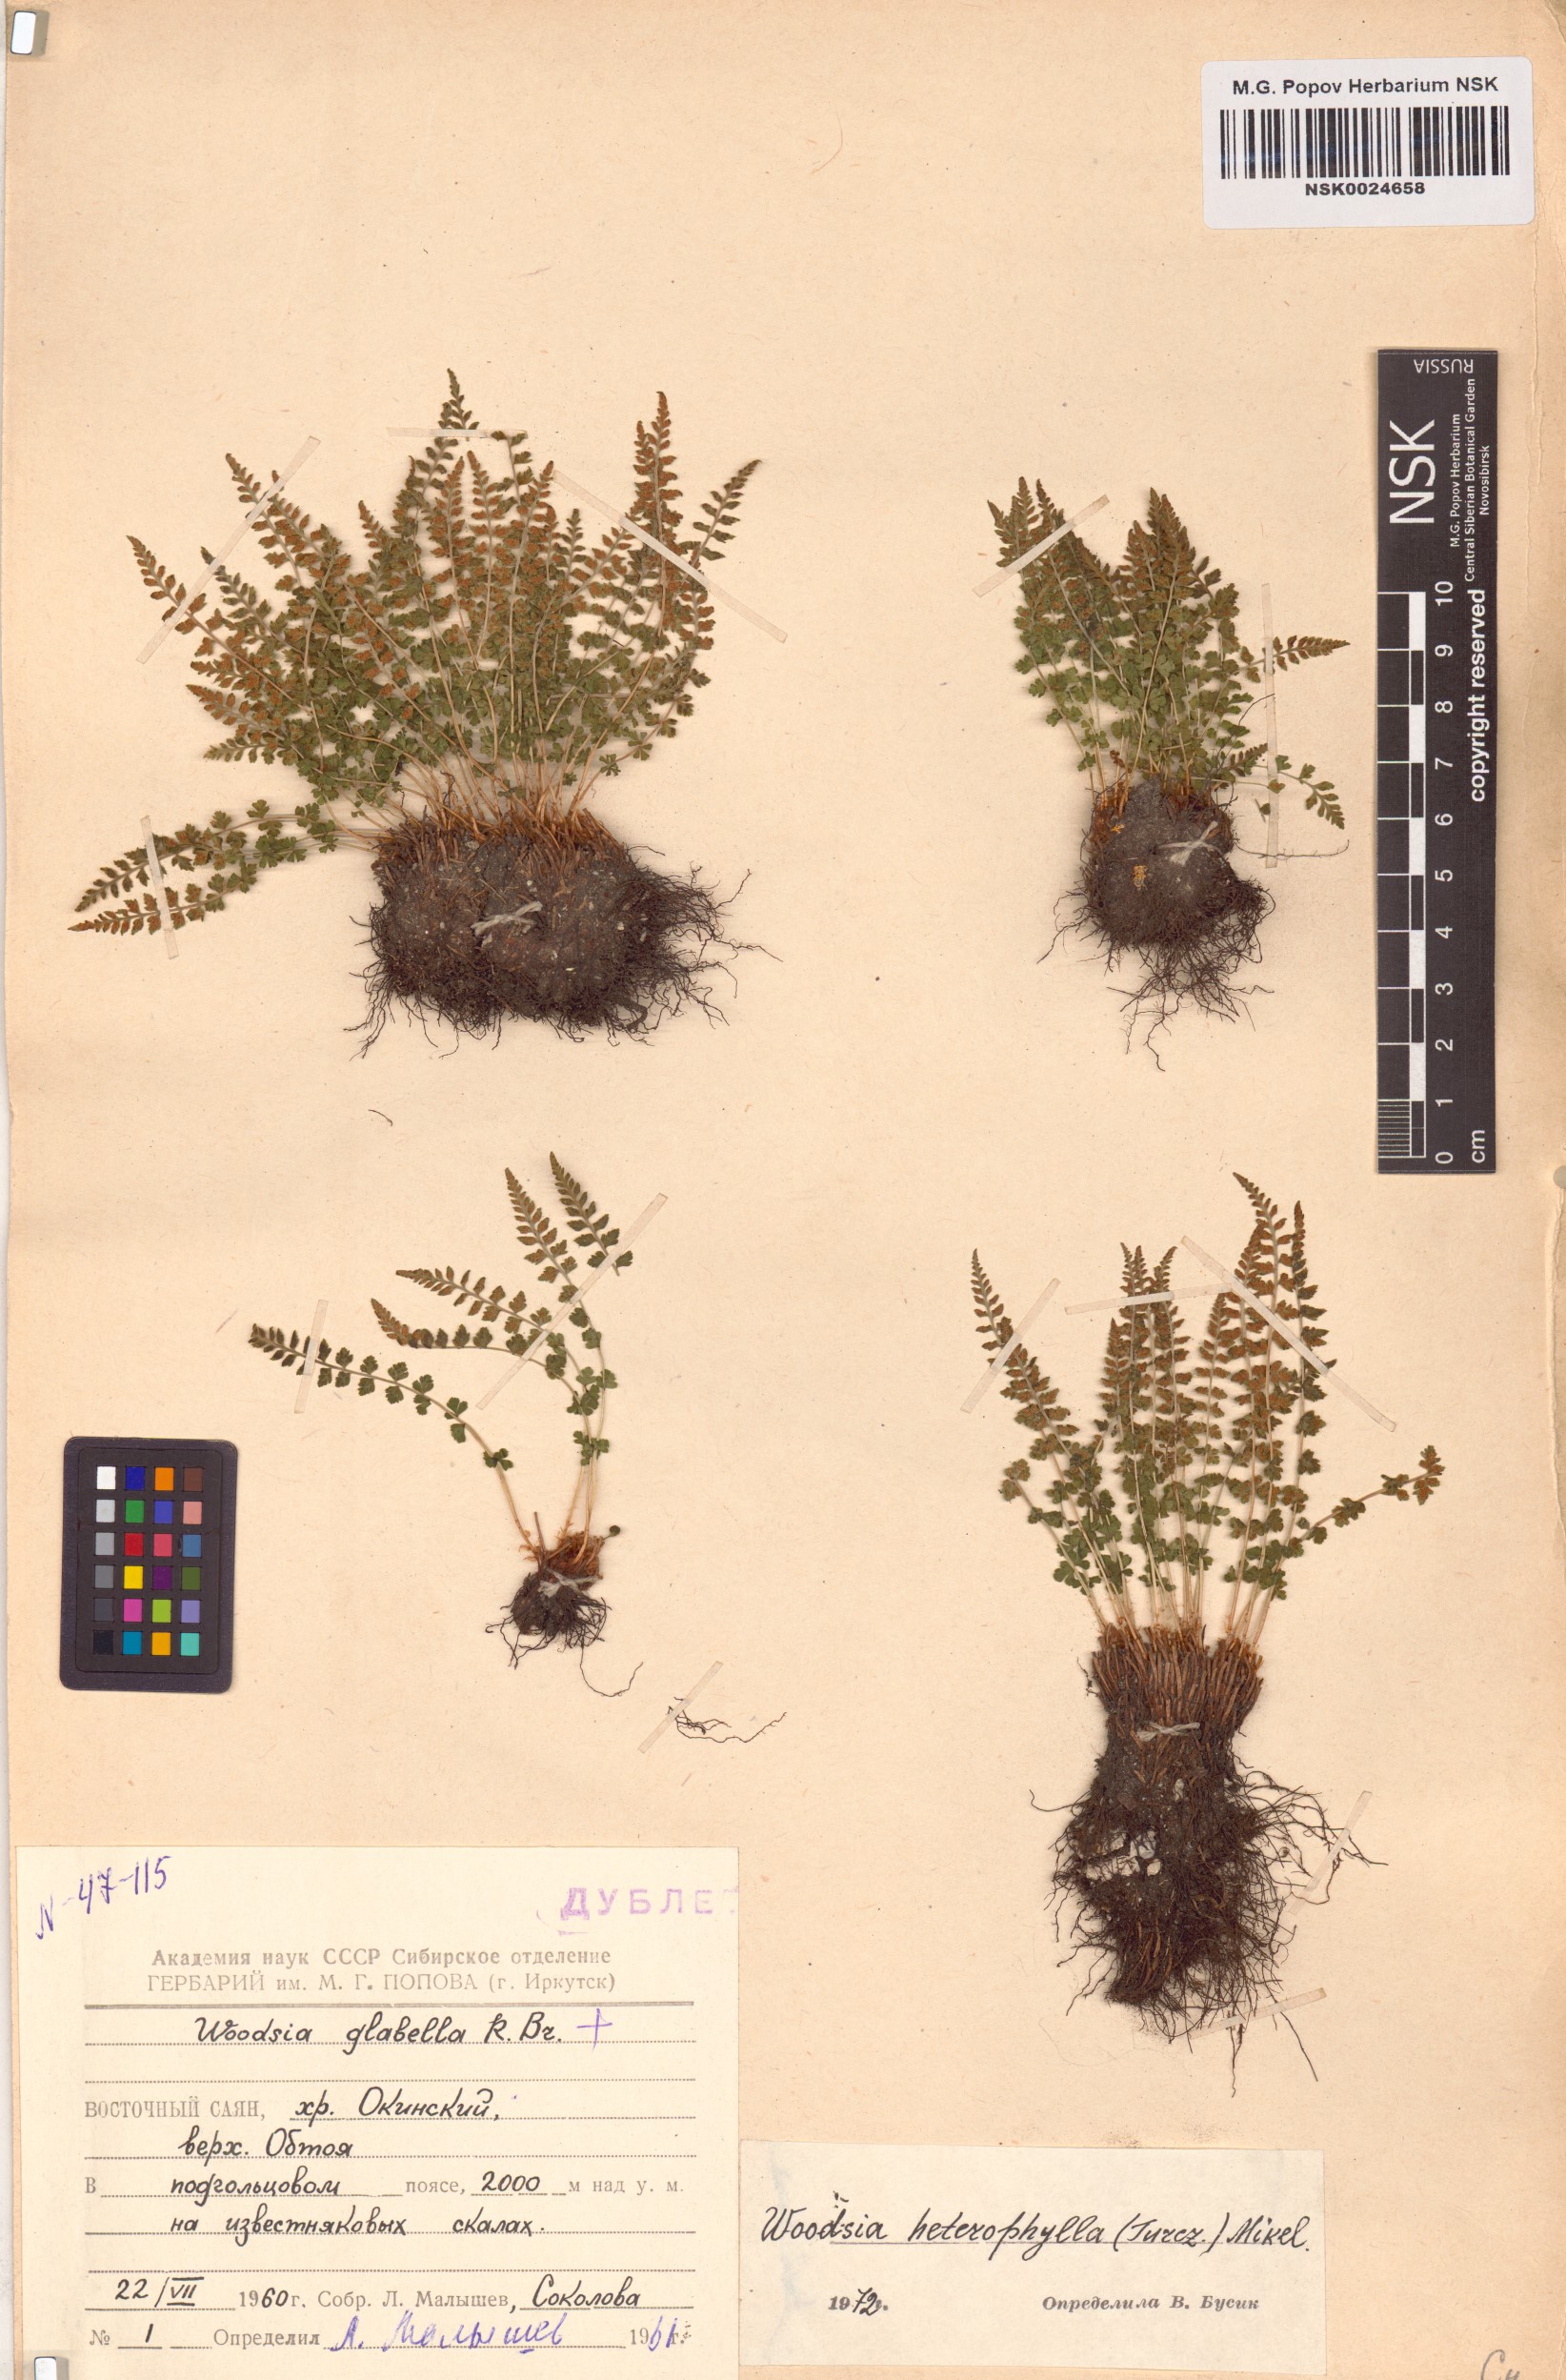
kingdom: Plantae
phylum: Tracheophyta
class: Polypodiopsida
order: Polypodiales
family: Woodsiaceae
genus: Woodsia
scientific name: Woodsia pulchella
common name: Graceful woodsia
